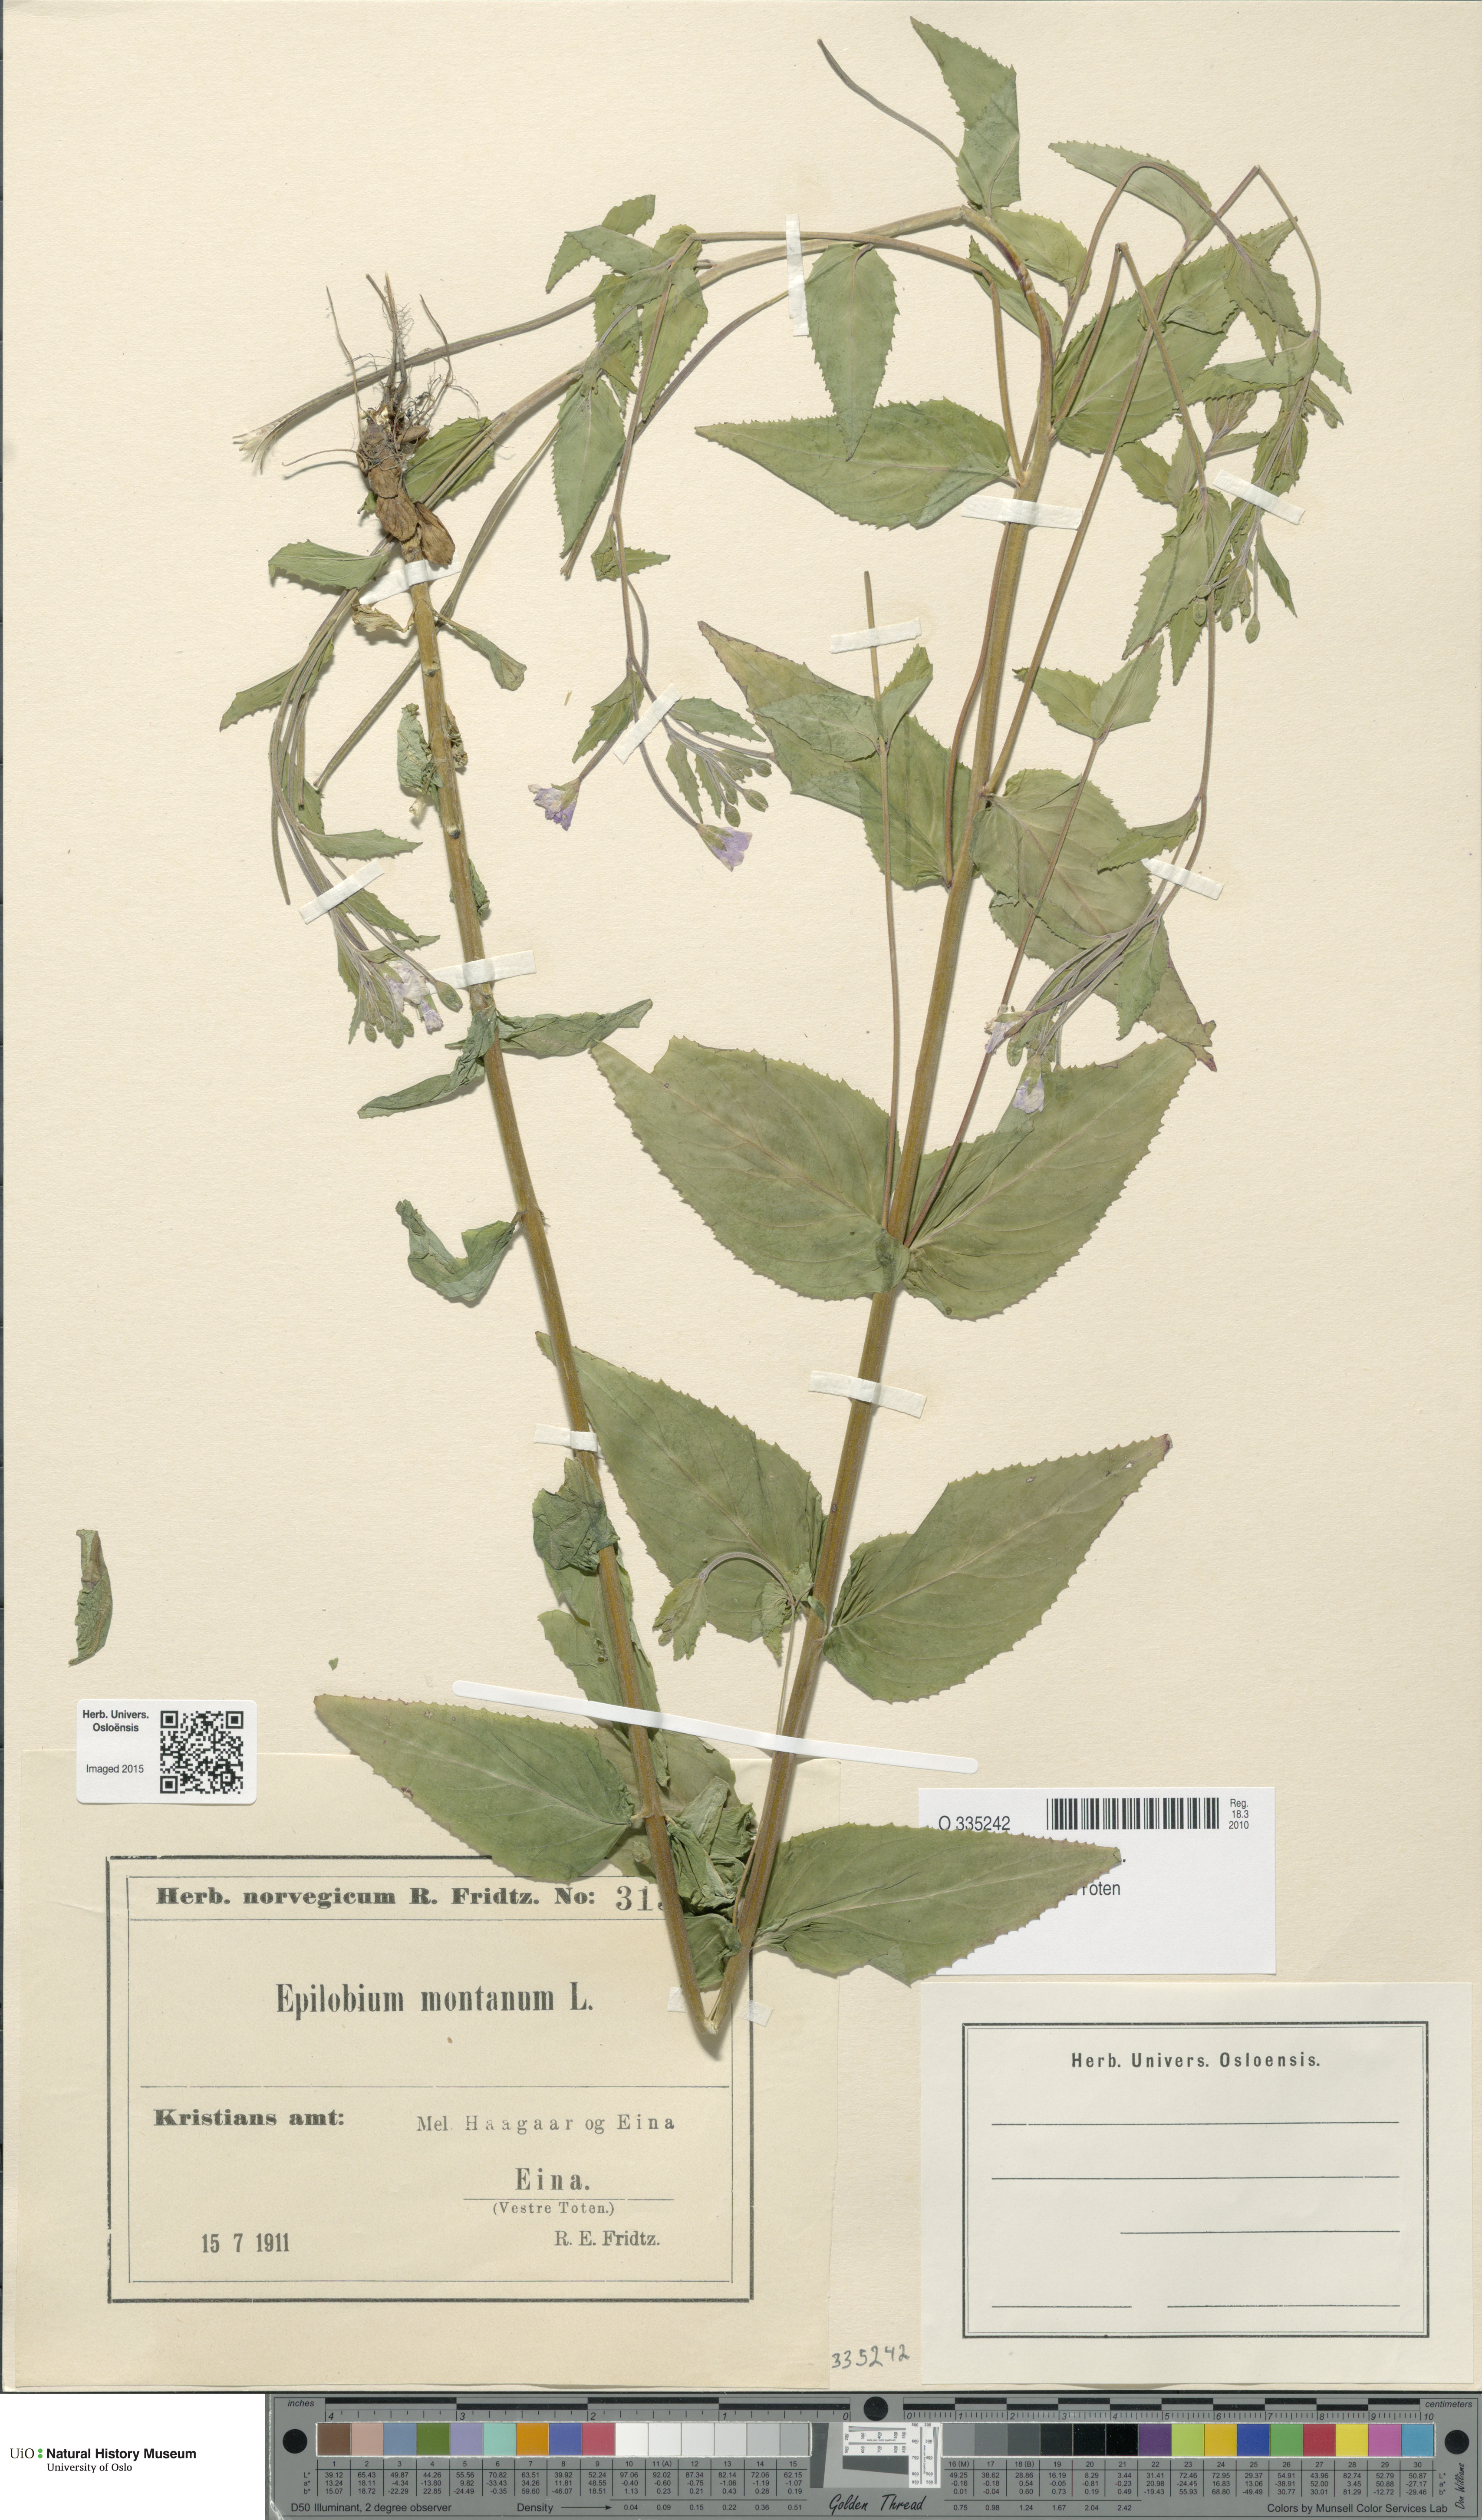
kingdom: Plantae
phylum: Tracheophyta
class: Magnoliopsida
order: Myrtales
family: Onagraceae
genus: Epilobium
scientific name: Epilobium montanum
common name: Broad-leaved willowherb
